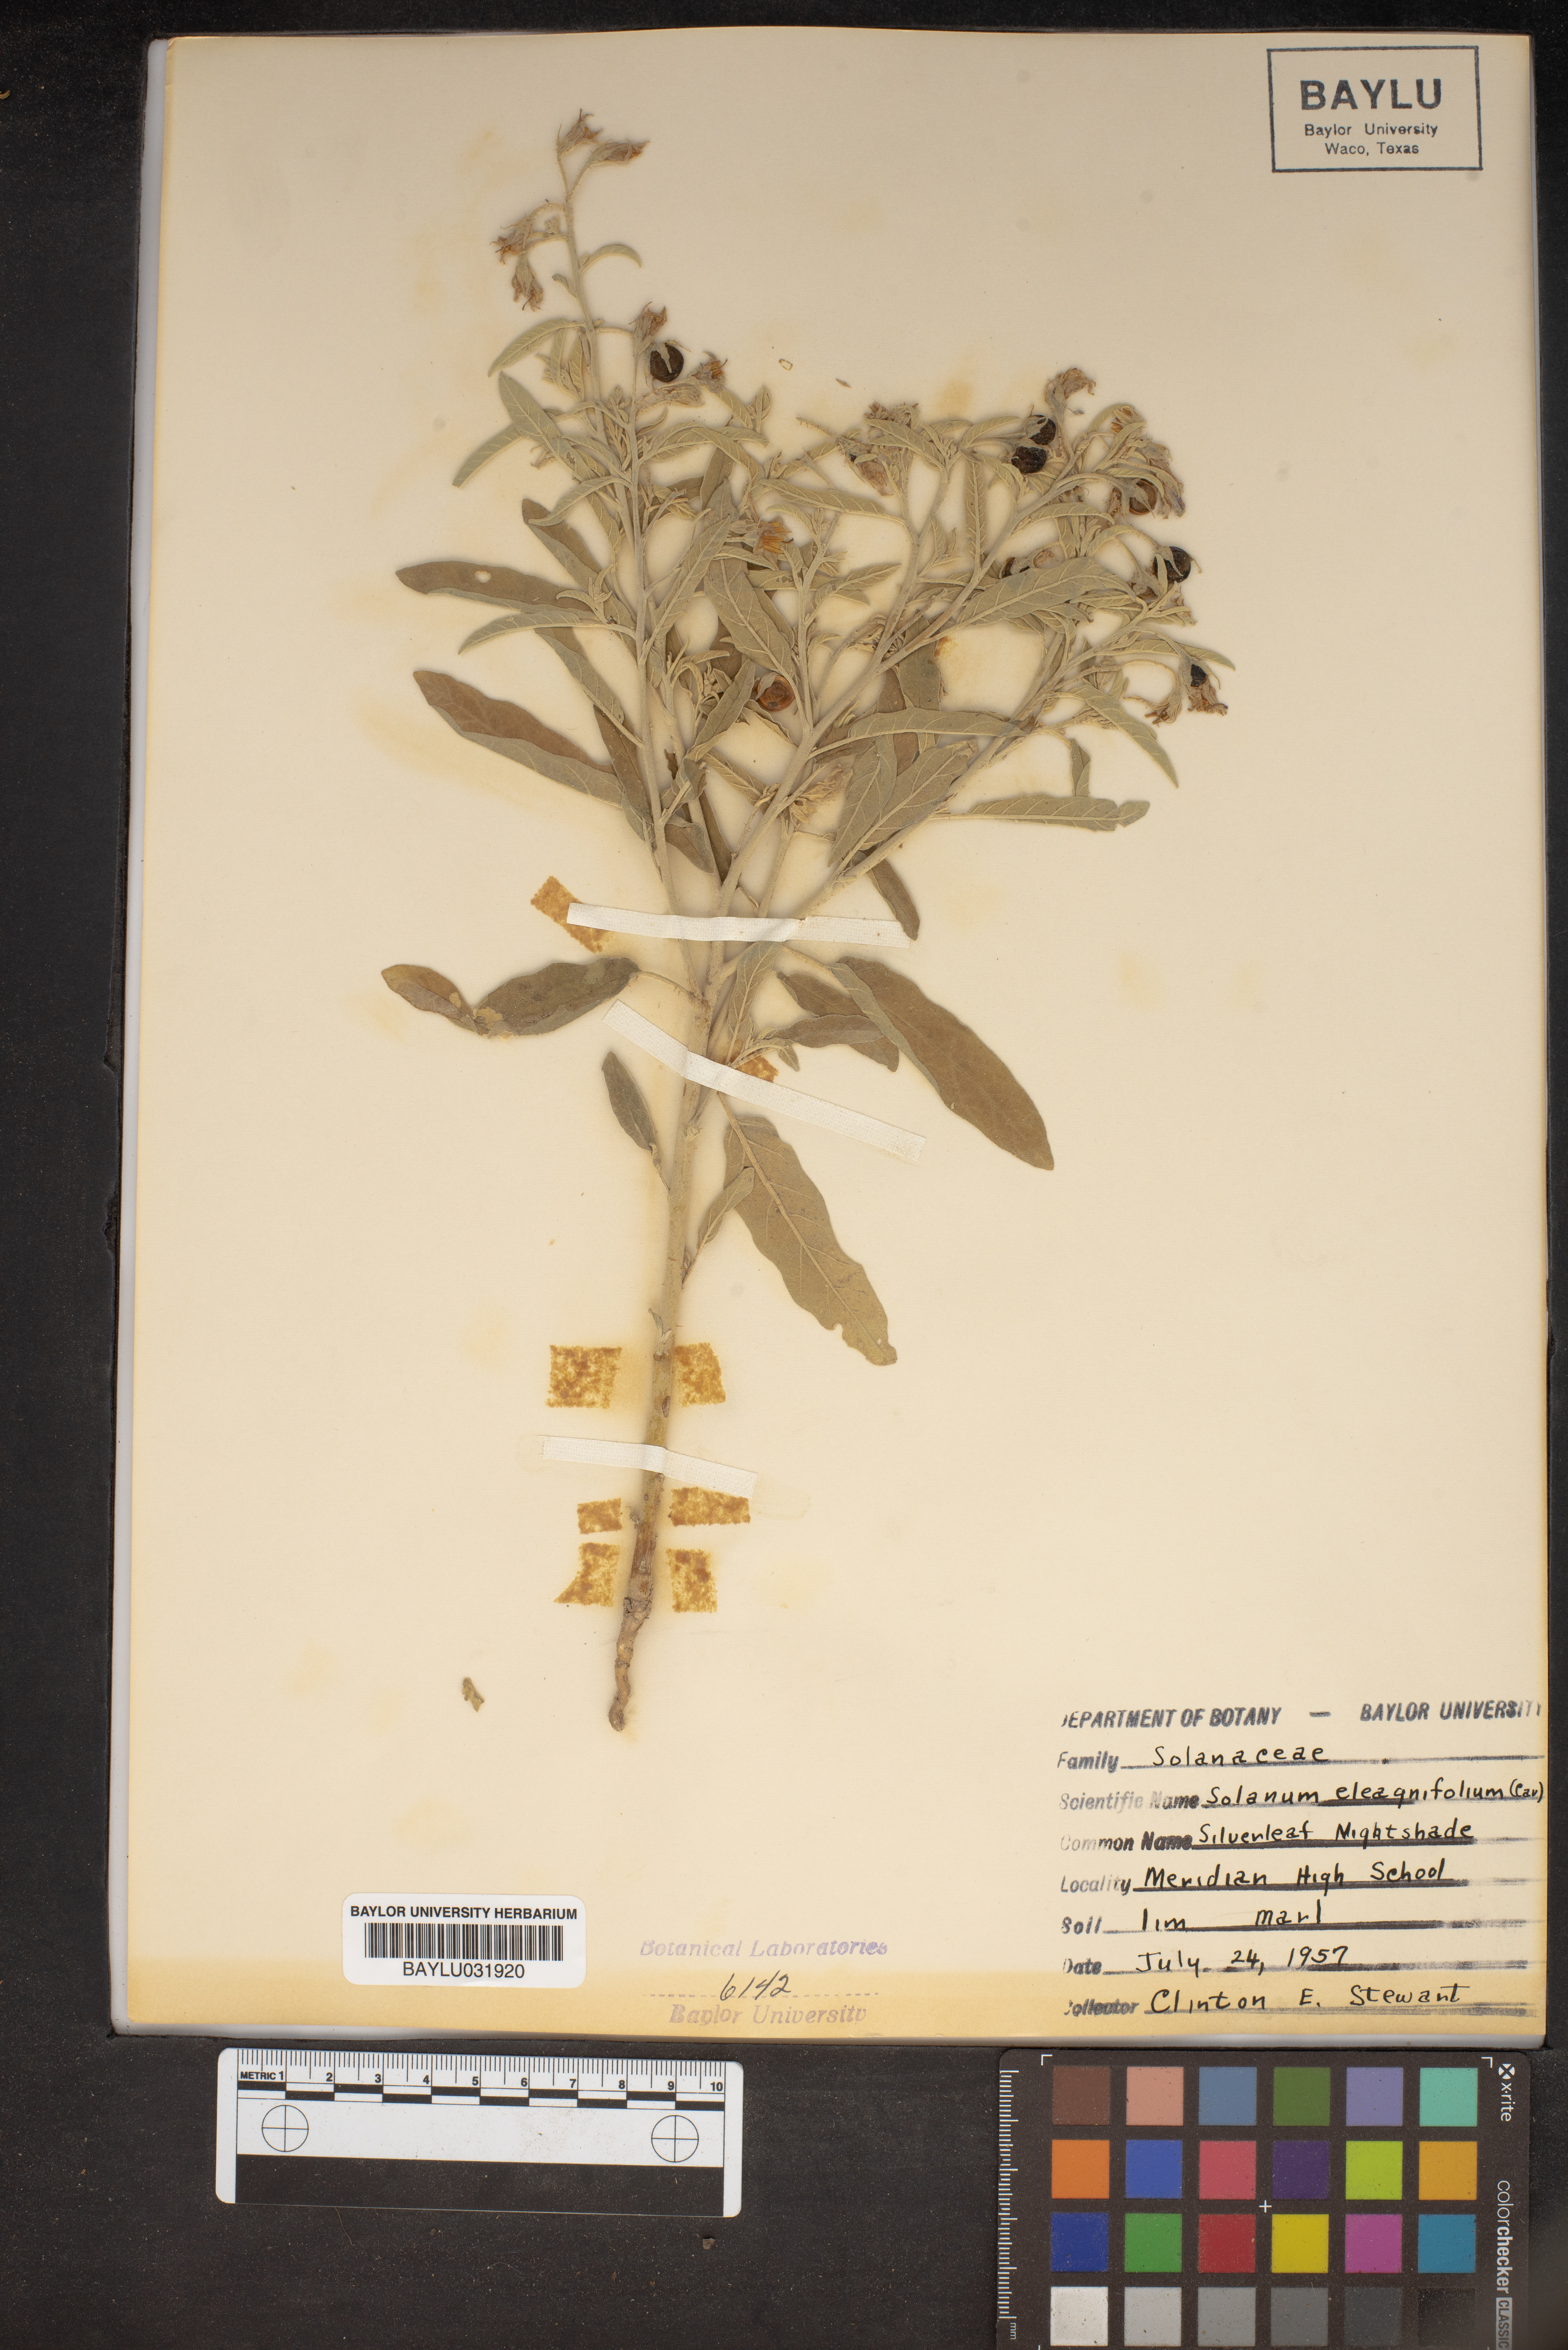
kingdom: Plantae
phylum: Tracheophyta
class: Magnoliopsida
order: Solanales
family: Solanaceae
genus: Solanum
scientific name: Solanum elaeagnifolium
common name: Silverleaf nightshade
